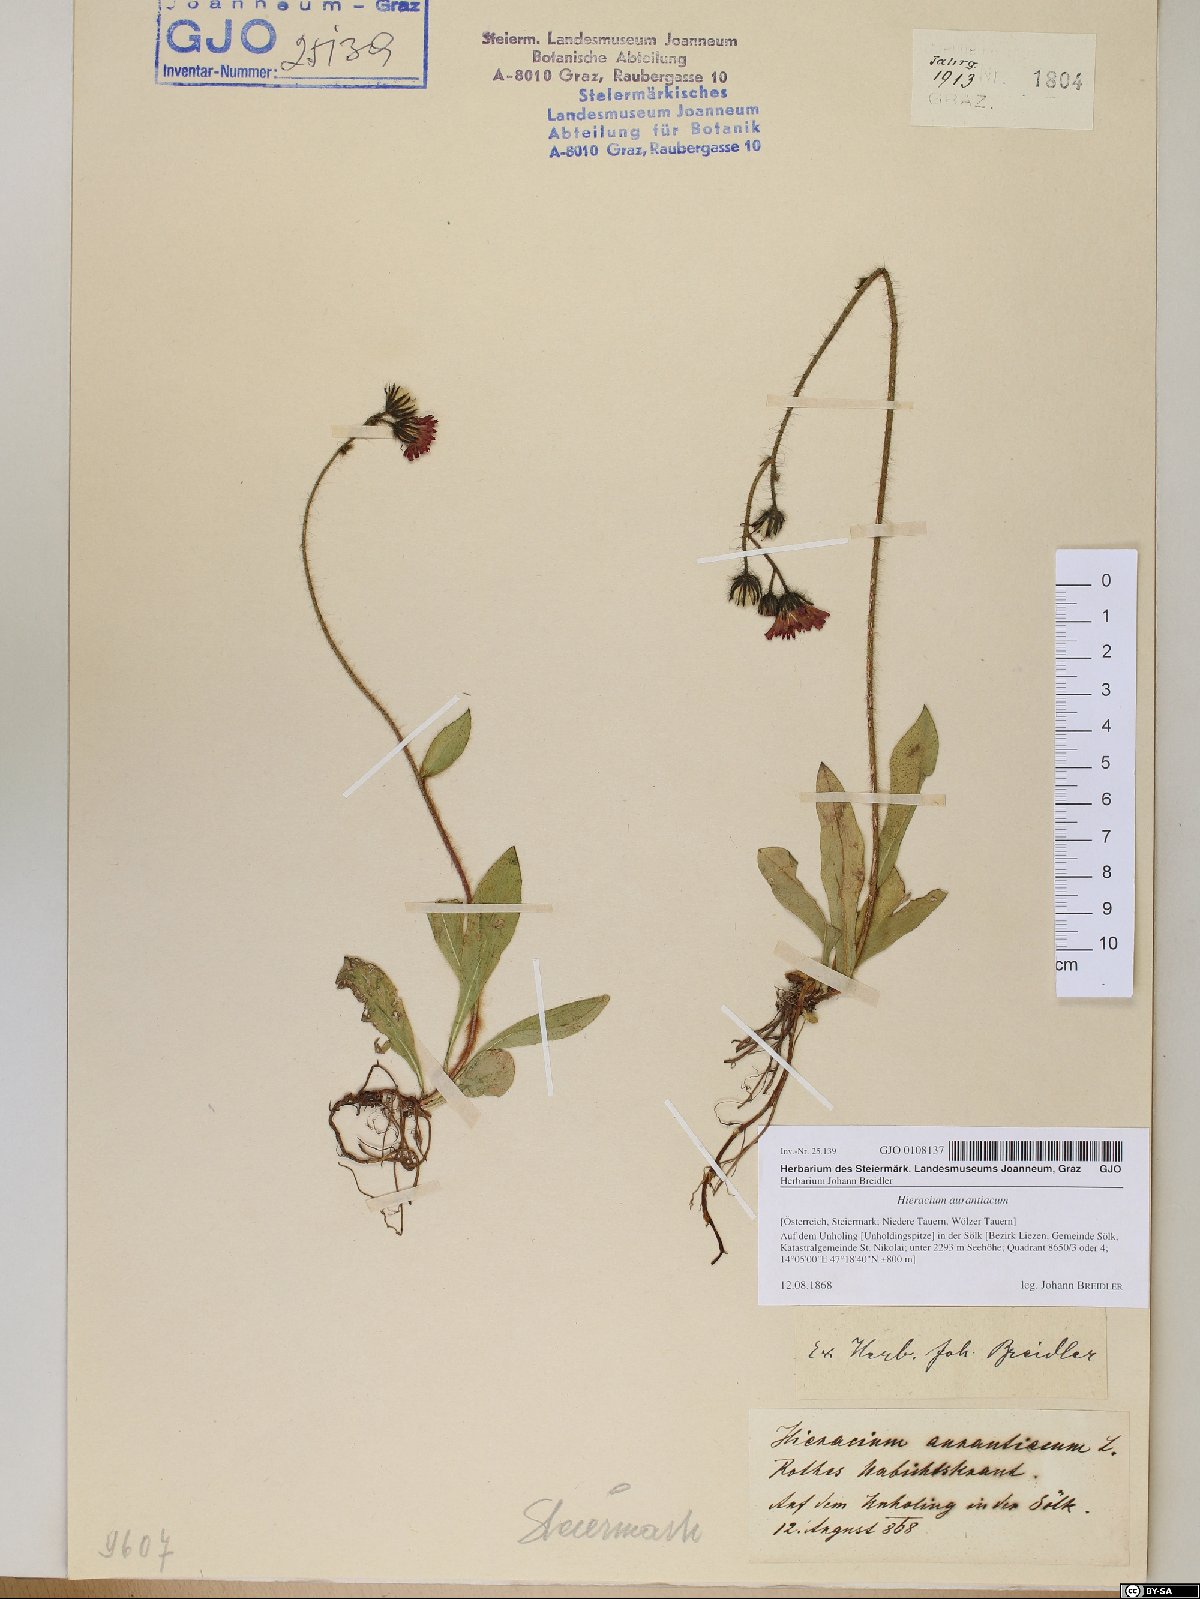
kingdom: Plantae
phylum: Tracheophyta
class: Magnoliopsida
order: Asterales
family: Asteraceae
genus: Pilosella
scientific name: Pilosella aurantiaca
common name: Fox-and-cubs
